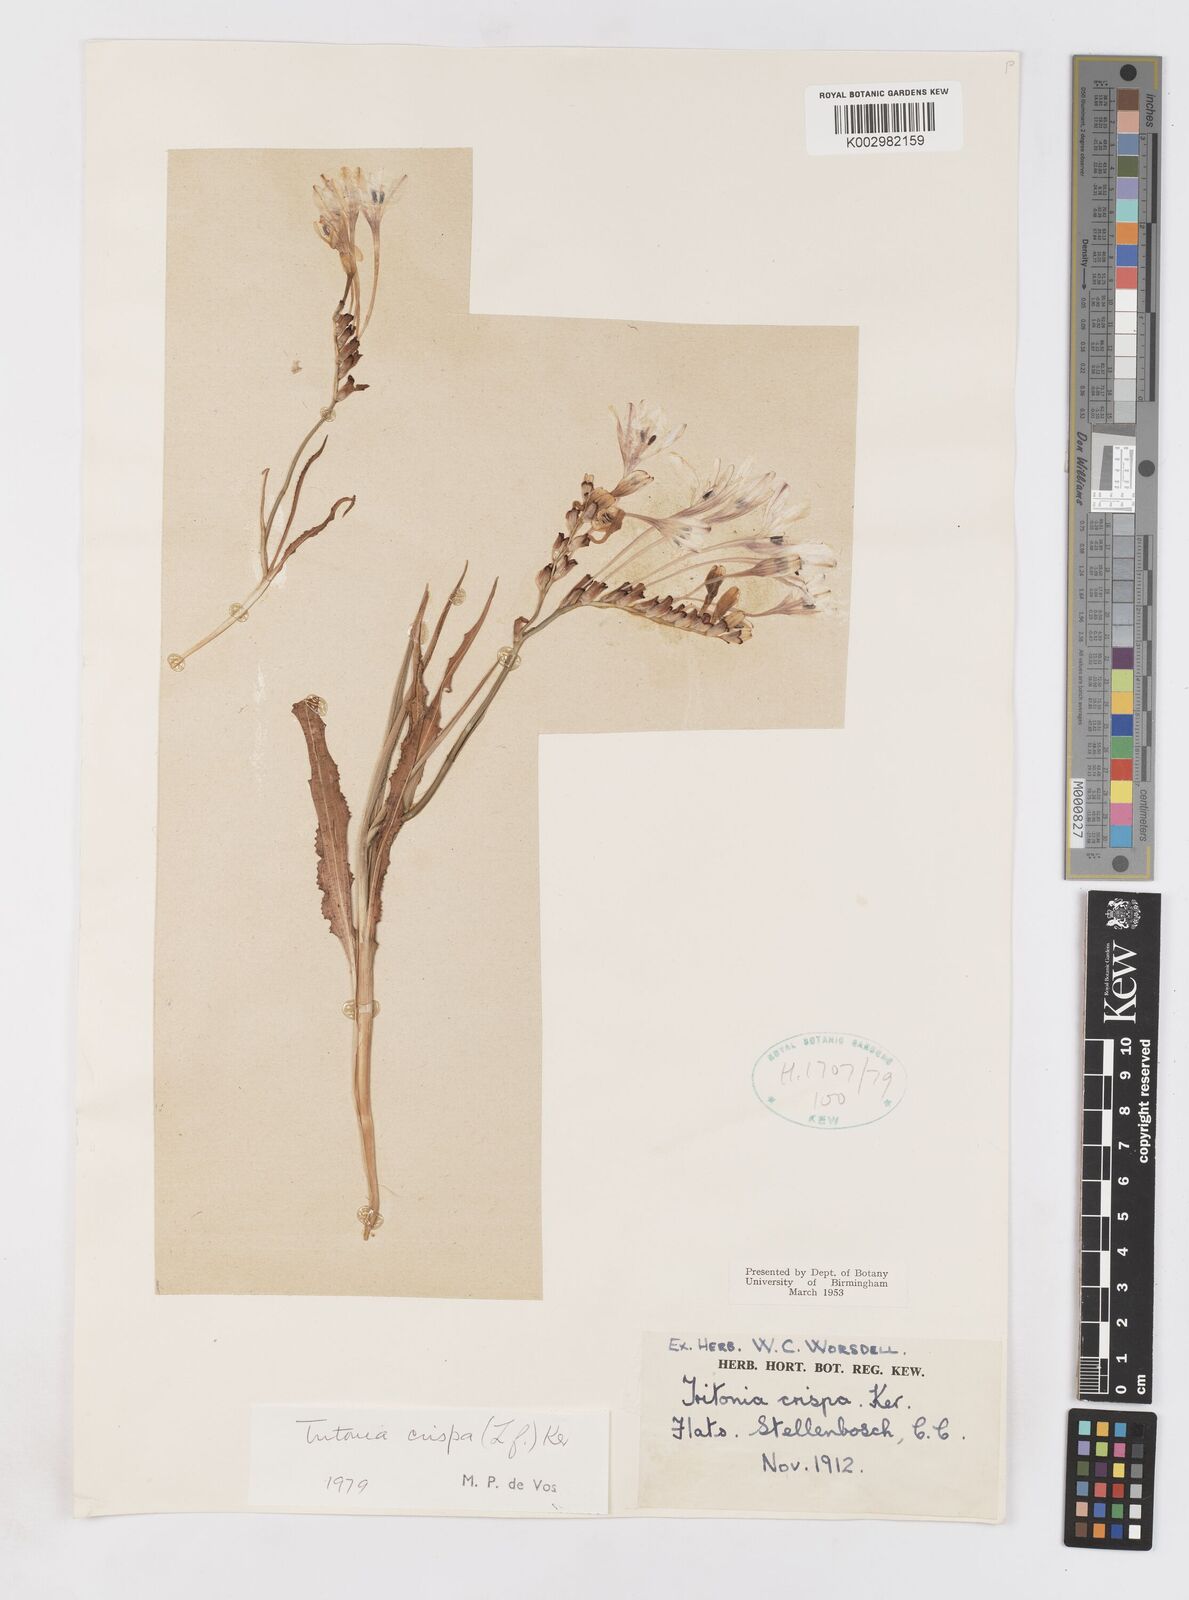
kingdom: Plantae
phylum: Tracheophyta
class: Liliopsida
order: Asparagales
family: Iridaceae
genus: Tritonia
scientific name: Tritonia undulata
